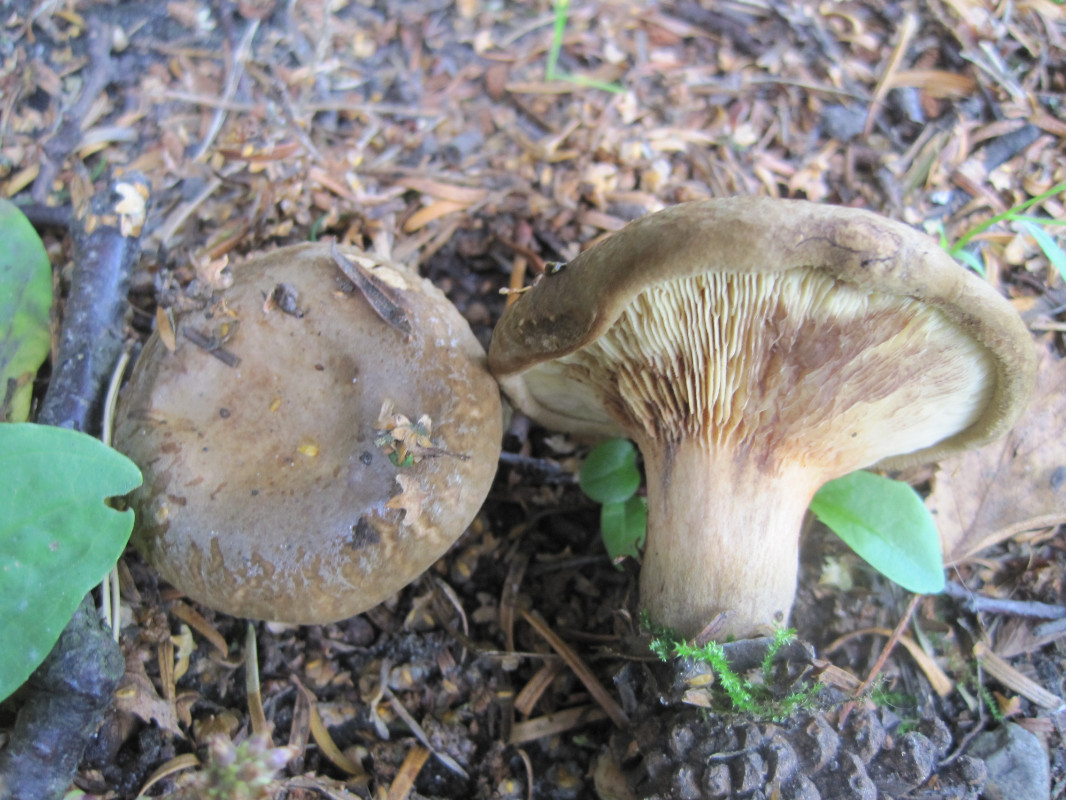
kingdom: Fungi
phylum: Basidiomycota
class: Agaricomycetes
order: Boletales
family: Paxillaceae
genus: Paxillus
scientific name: Paxillus obscurisporus
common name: mahognisporet netbladhat
